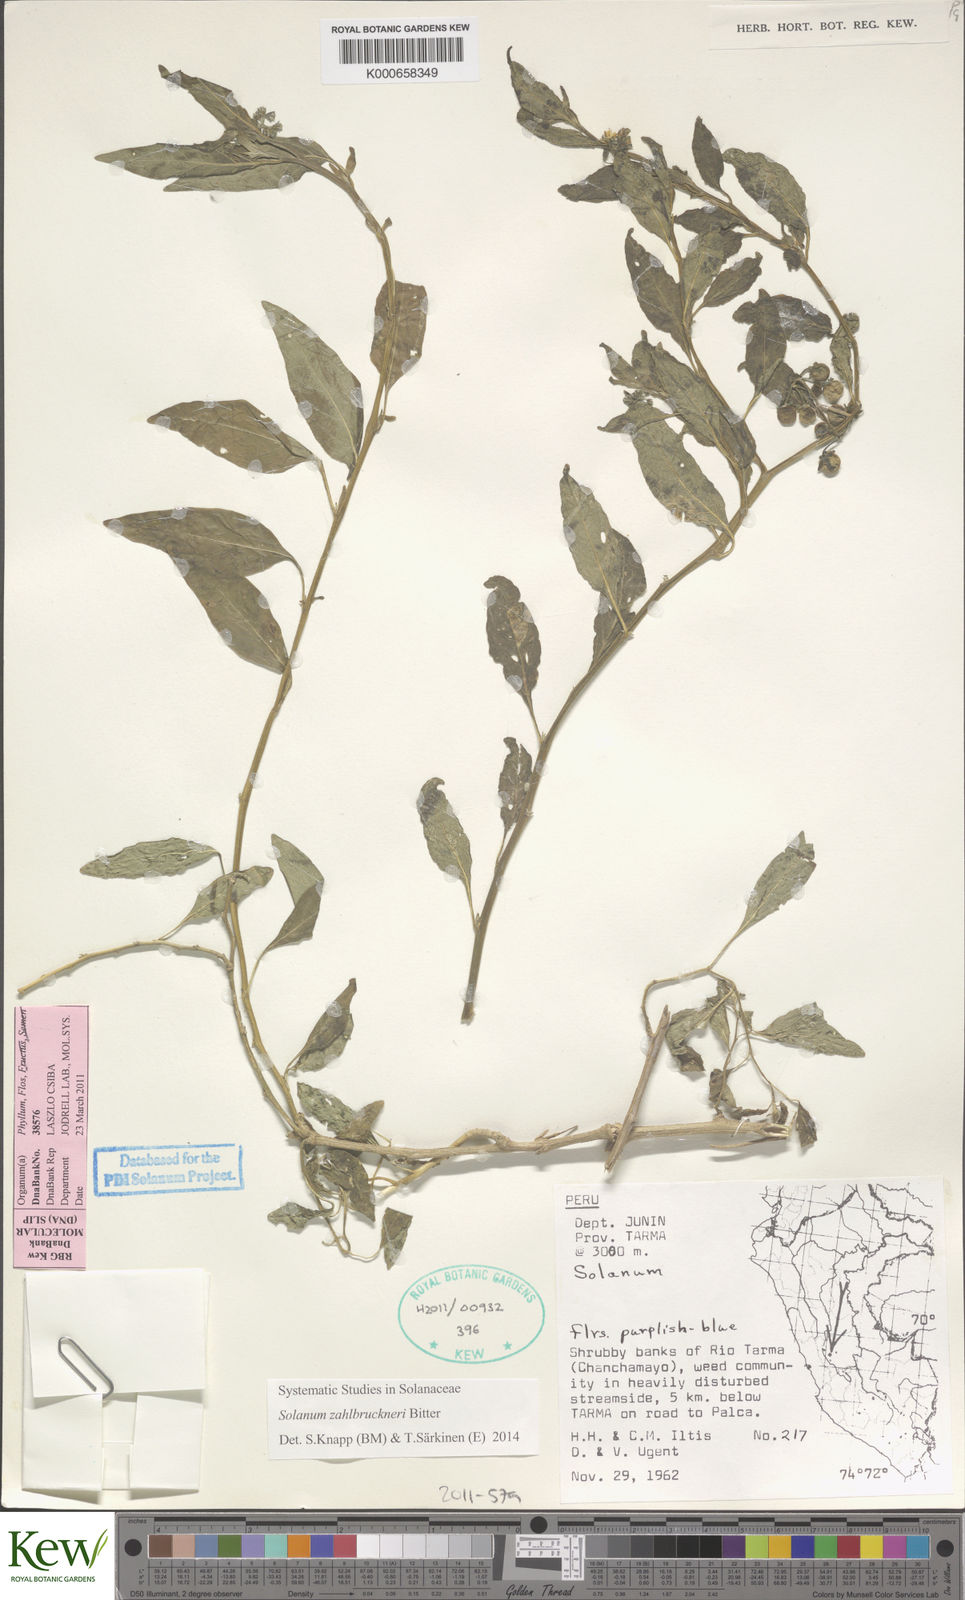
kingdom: Plantae
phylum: Tracheophyta
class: Magnoliopsida
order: Solanales
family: Solanaceae
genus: Solanum
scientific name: Solanum aloysiifolium
